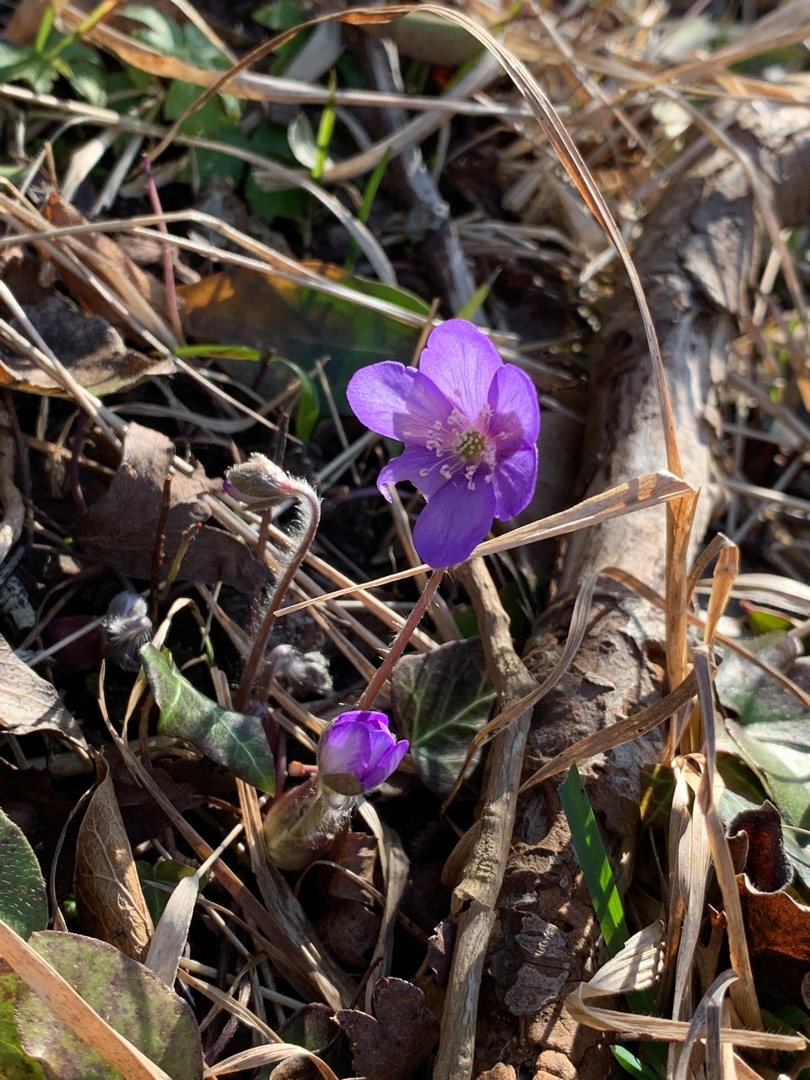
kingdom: Plantae
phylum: Tracheophyta
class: Magnoliopsida
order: Ranunculales
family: Ranunculaceae
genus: Hepatica
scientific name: Hepatica nobilis
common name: Blå anemone
